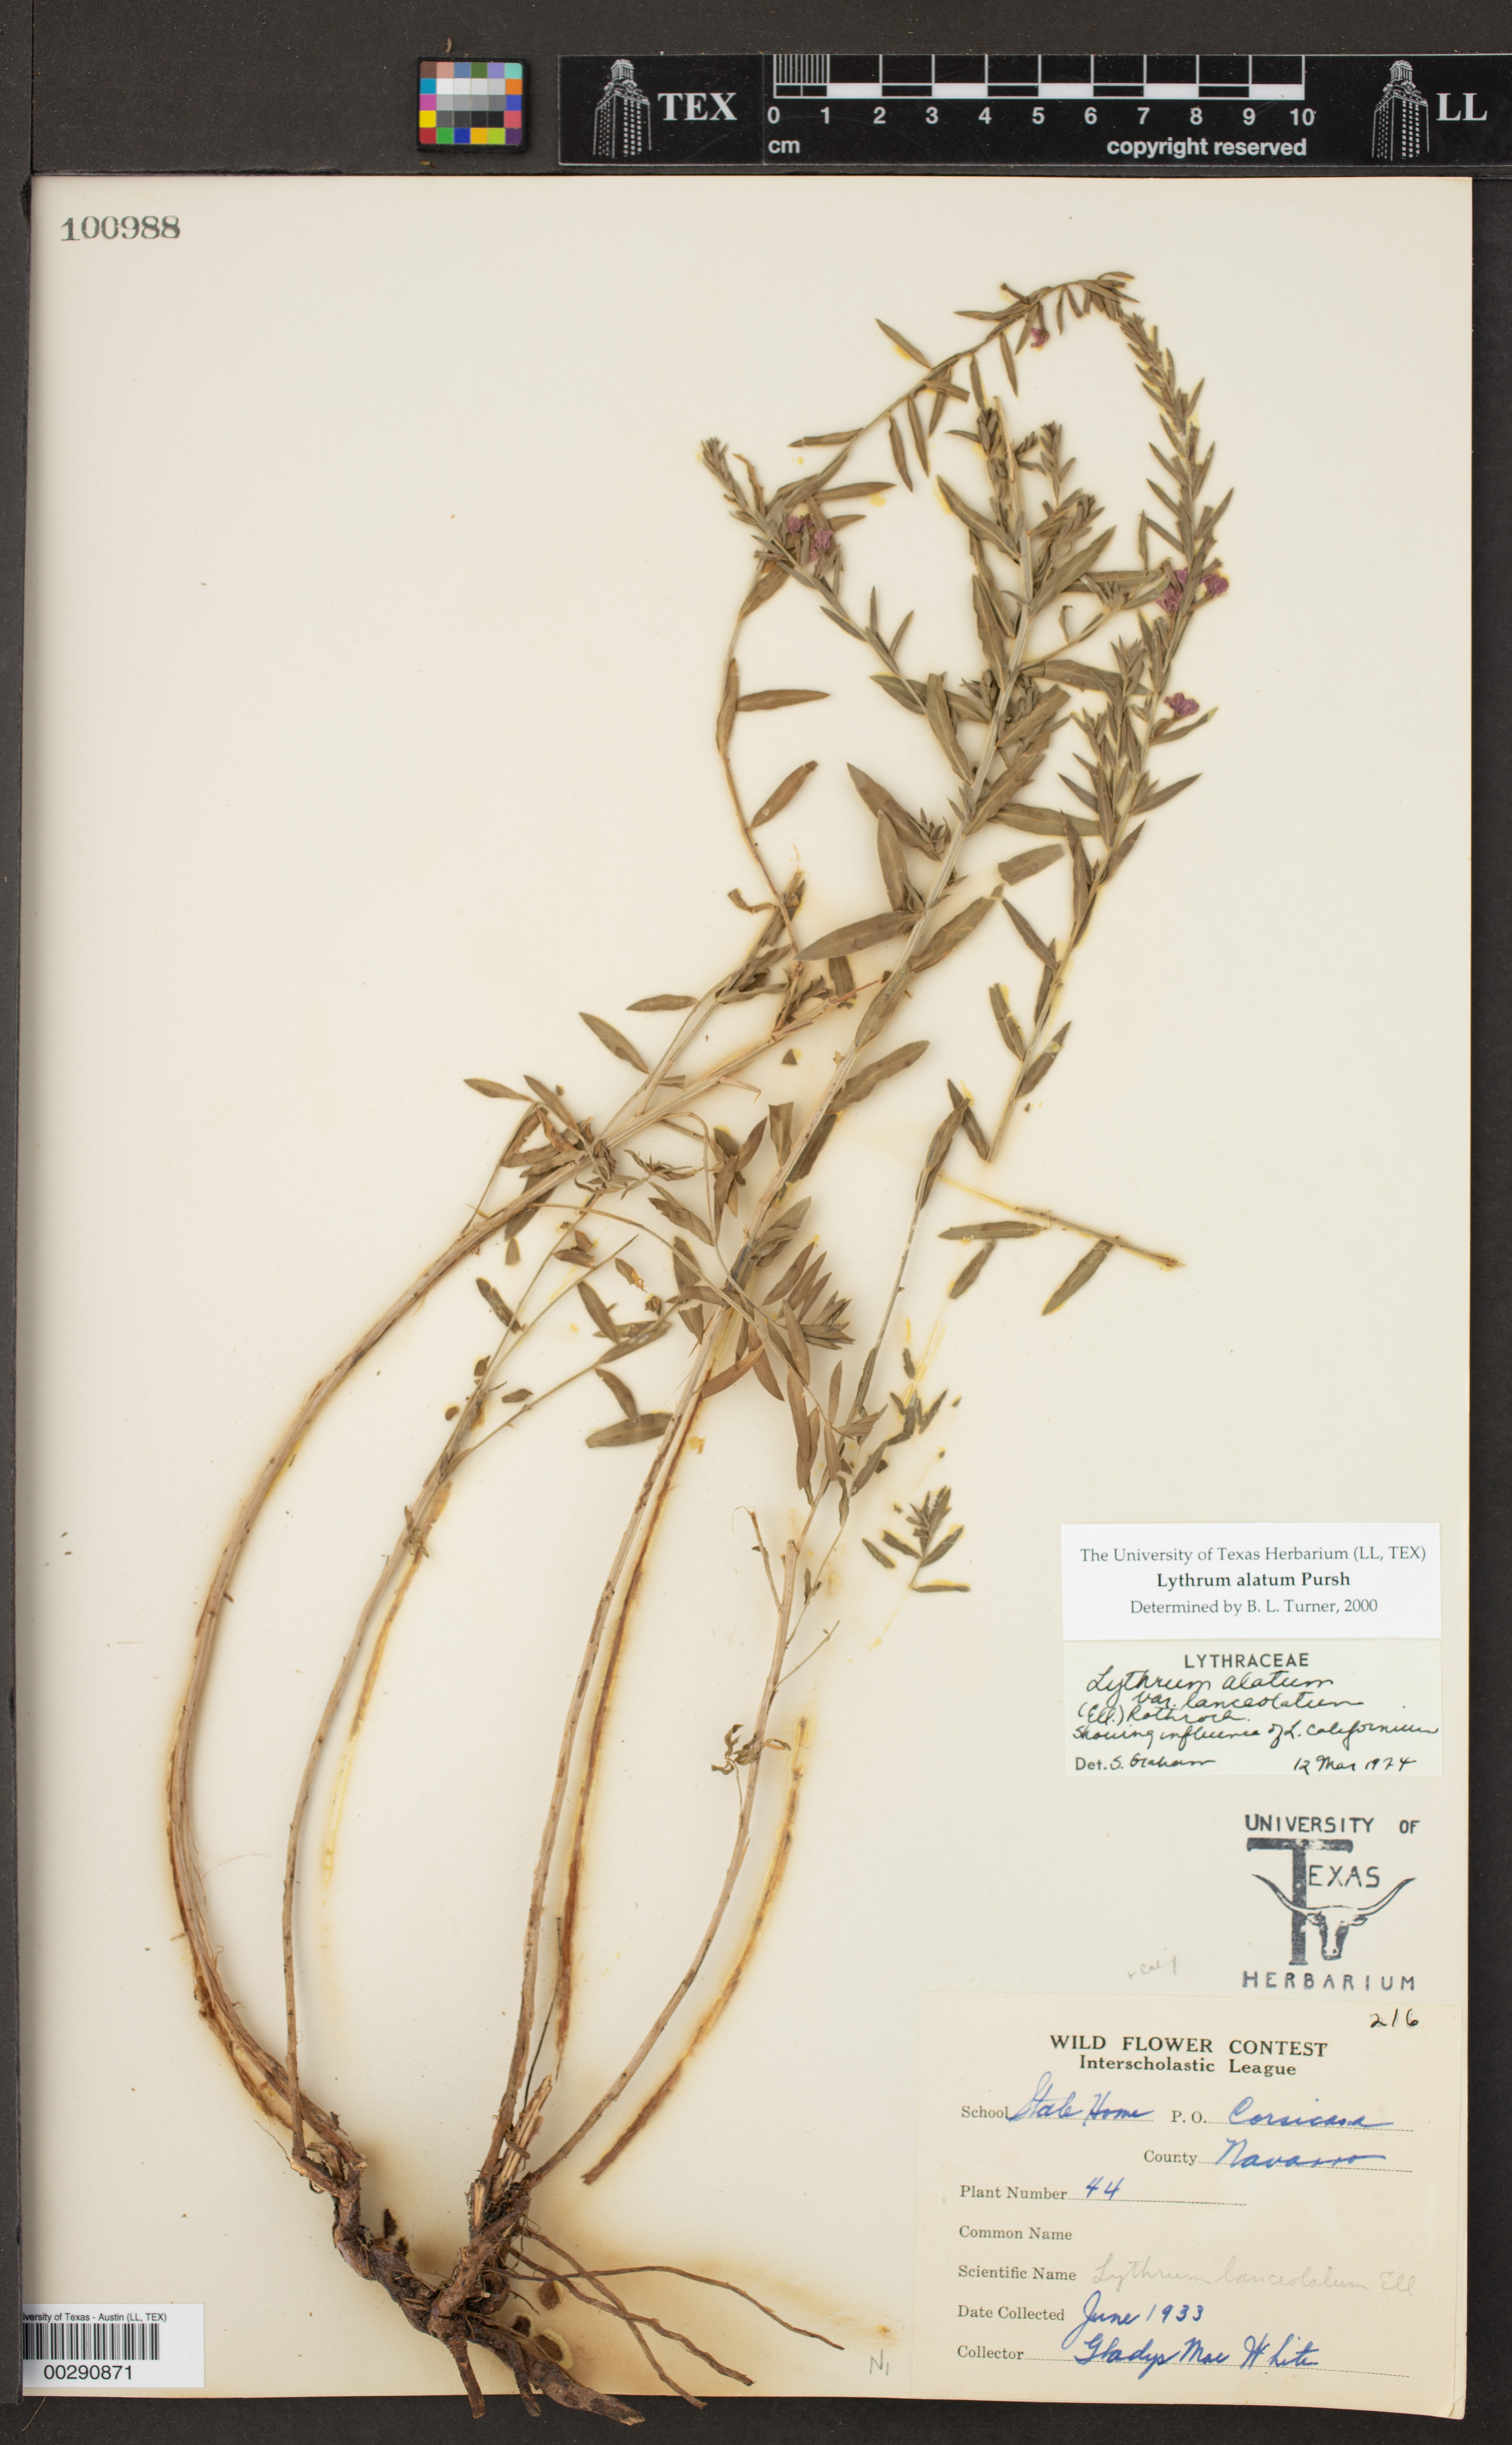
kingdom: Plantae
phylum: Tracheophyta
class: Magnoliopsida
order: Myrtales
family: Lythraceae
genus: Lythrum
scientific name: Lythrum alatum
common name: Winged loosestrife
